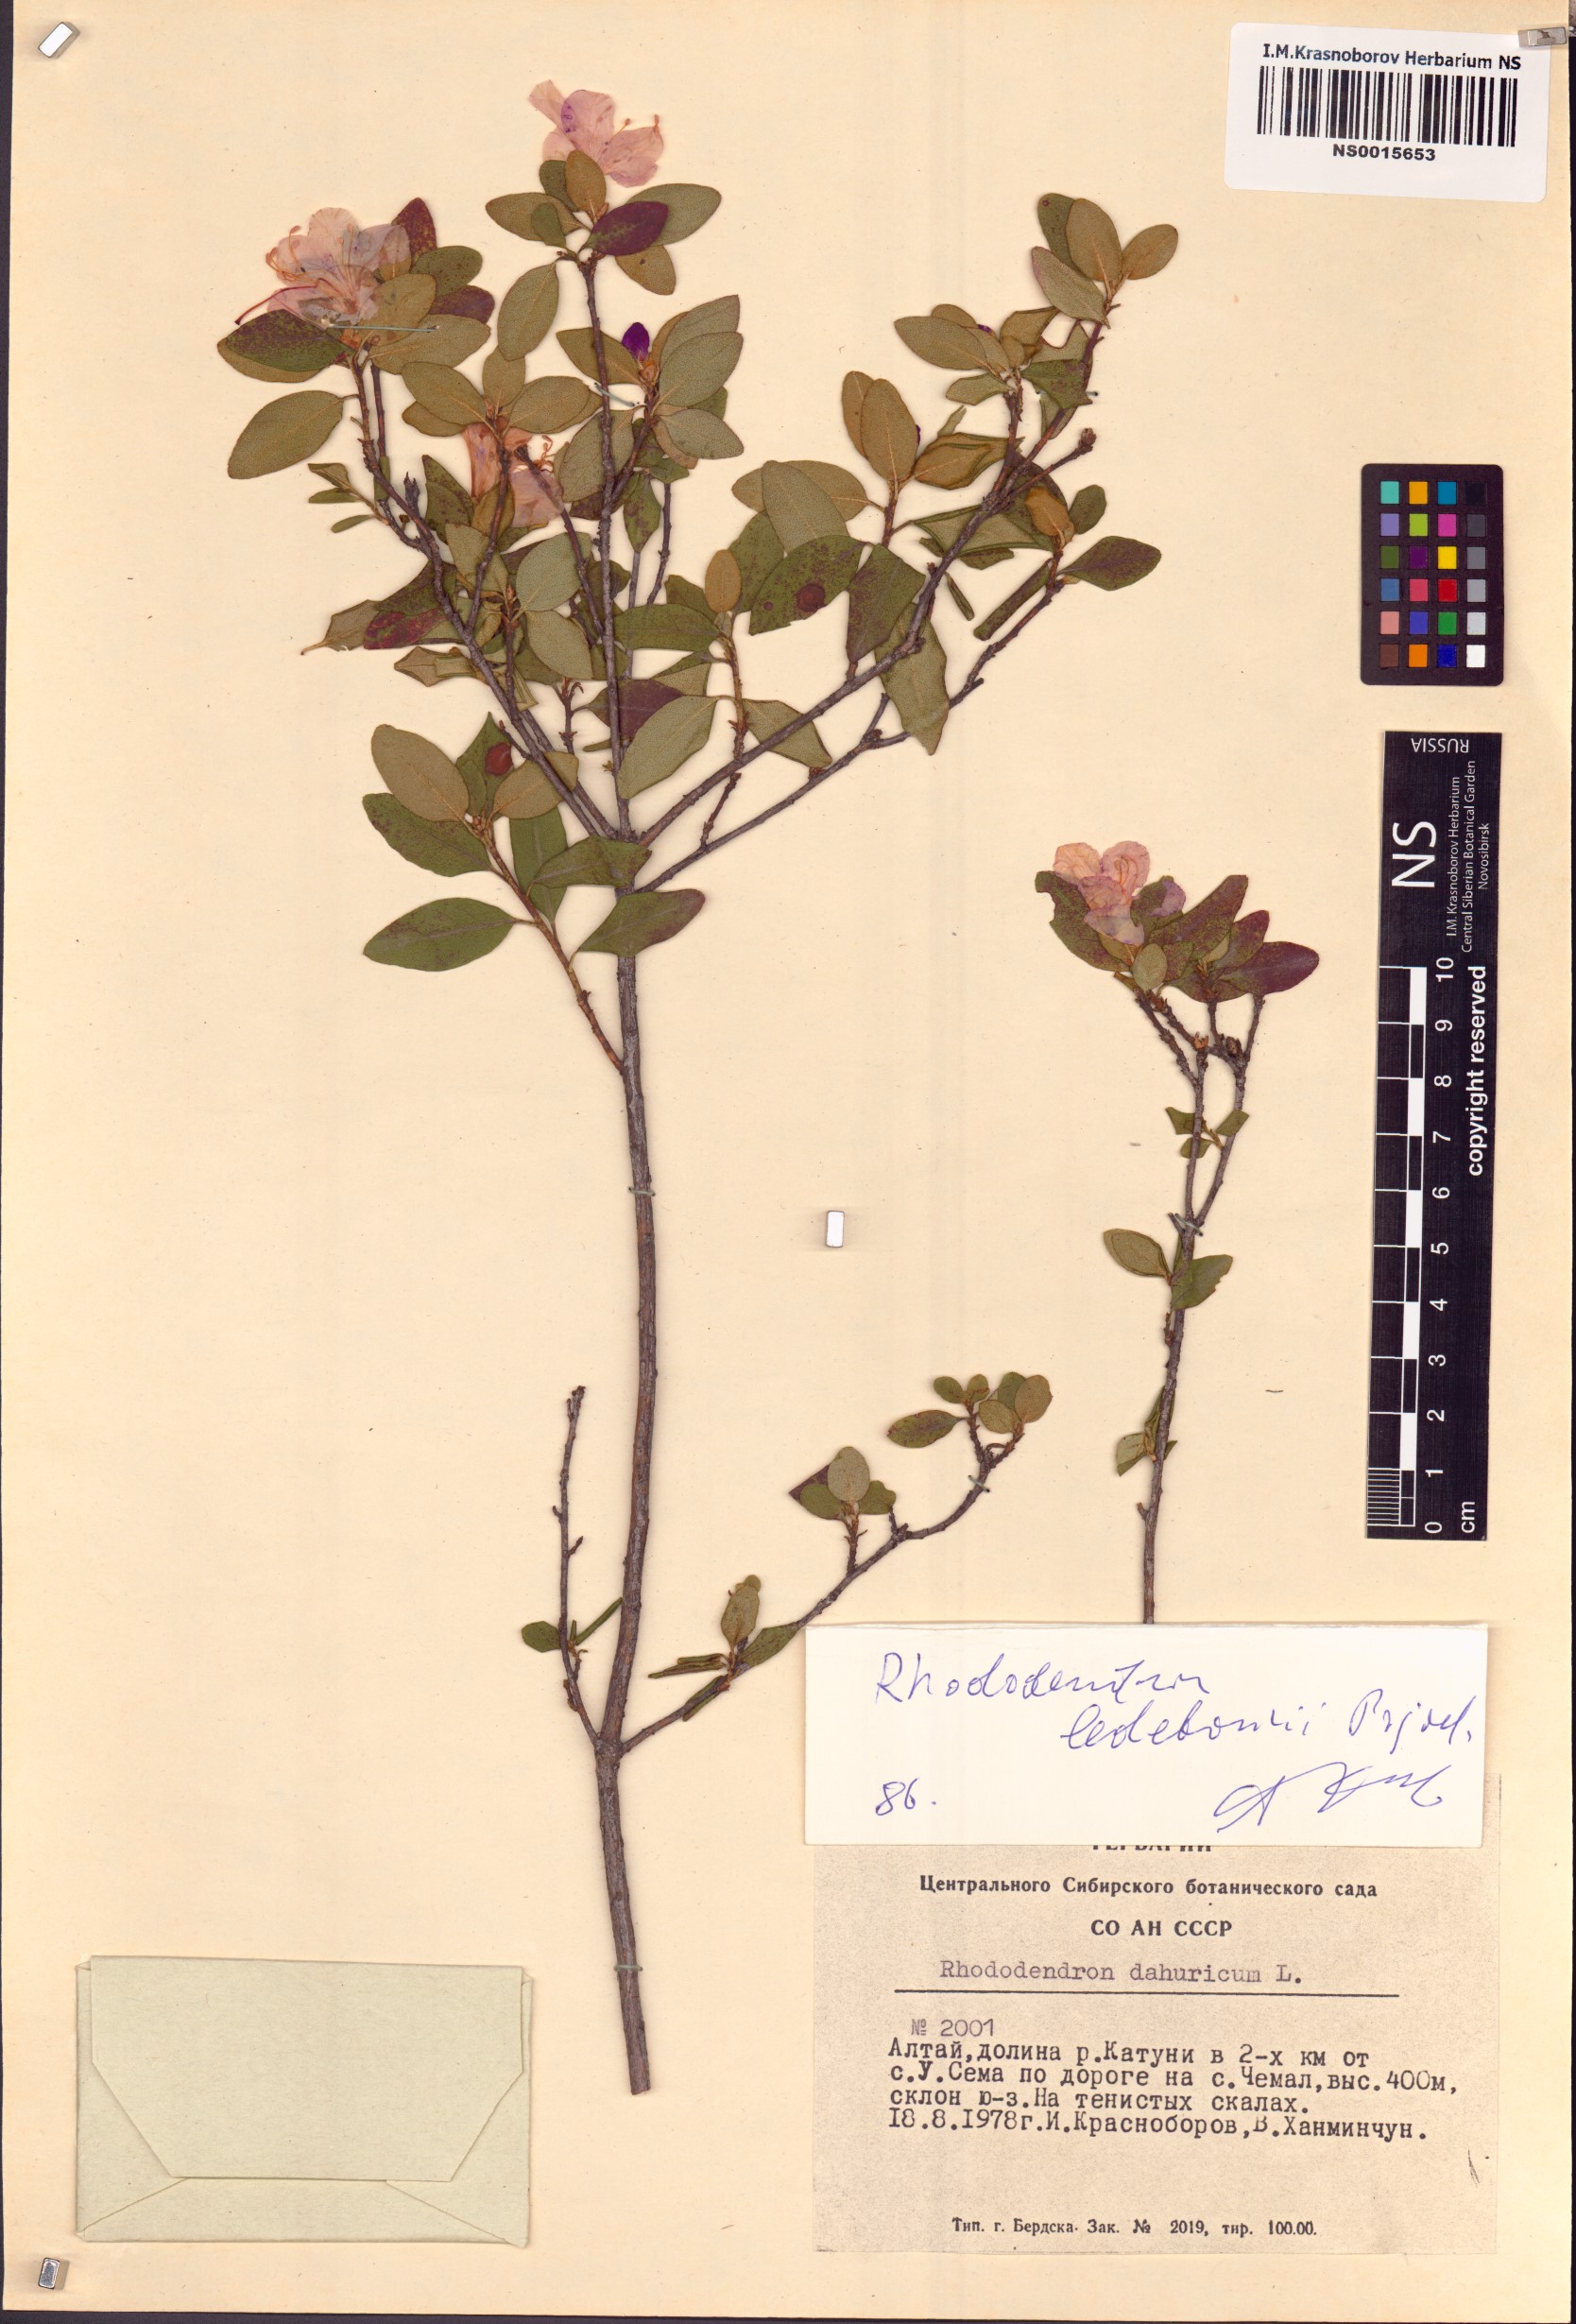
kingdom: Plantae
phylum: Tracheophyta
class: Magnoliopsida
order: Ericales
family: Ericaceae
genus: Rhododendron
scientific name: Rhododendron dauricum
